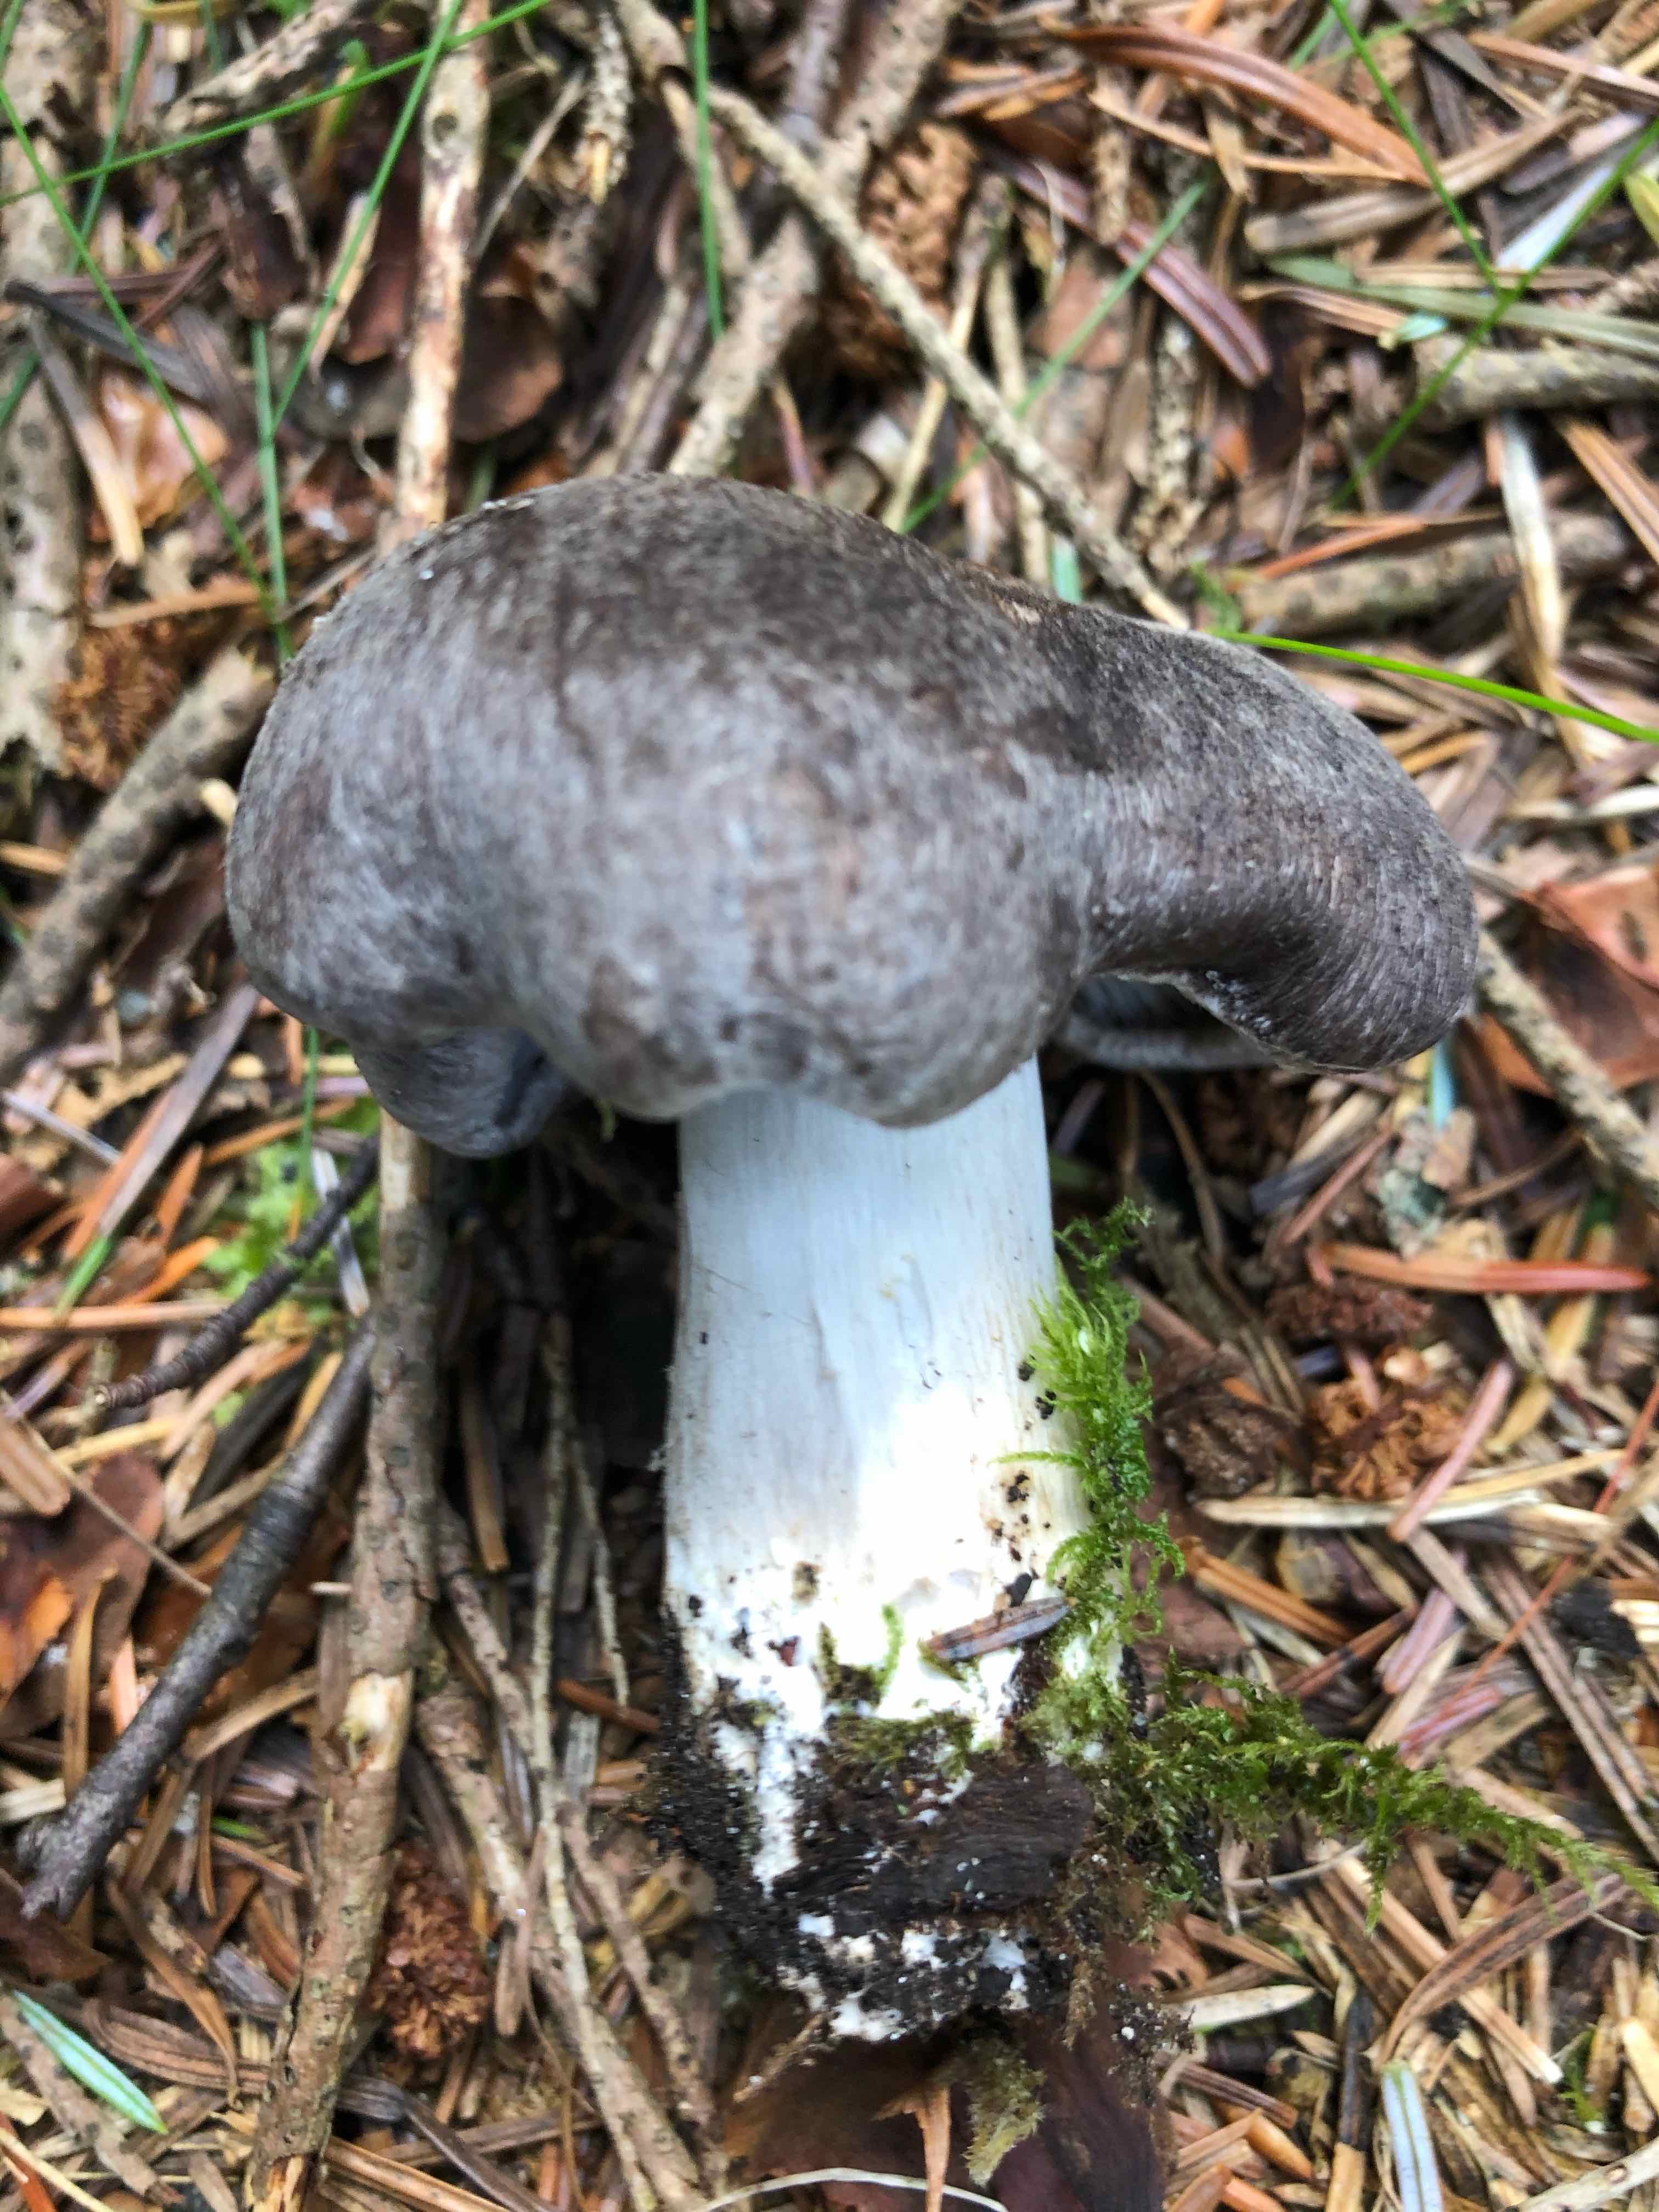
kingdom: Fungi
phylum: Basidiomycota
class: Agaricomycetes
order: Agaricales
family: Tricholomataceae
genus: Tricholoma
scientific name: Tricholoma terreum
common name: jordfarvet ridderhat
